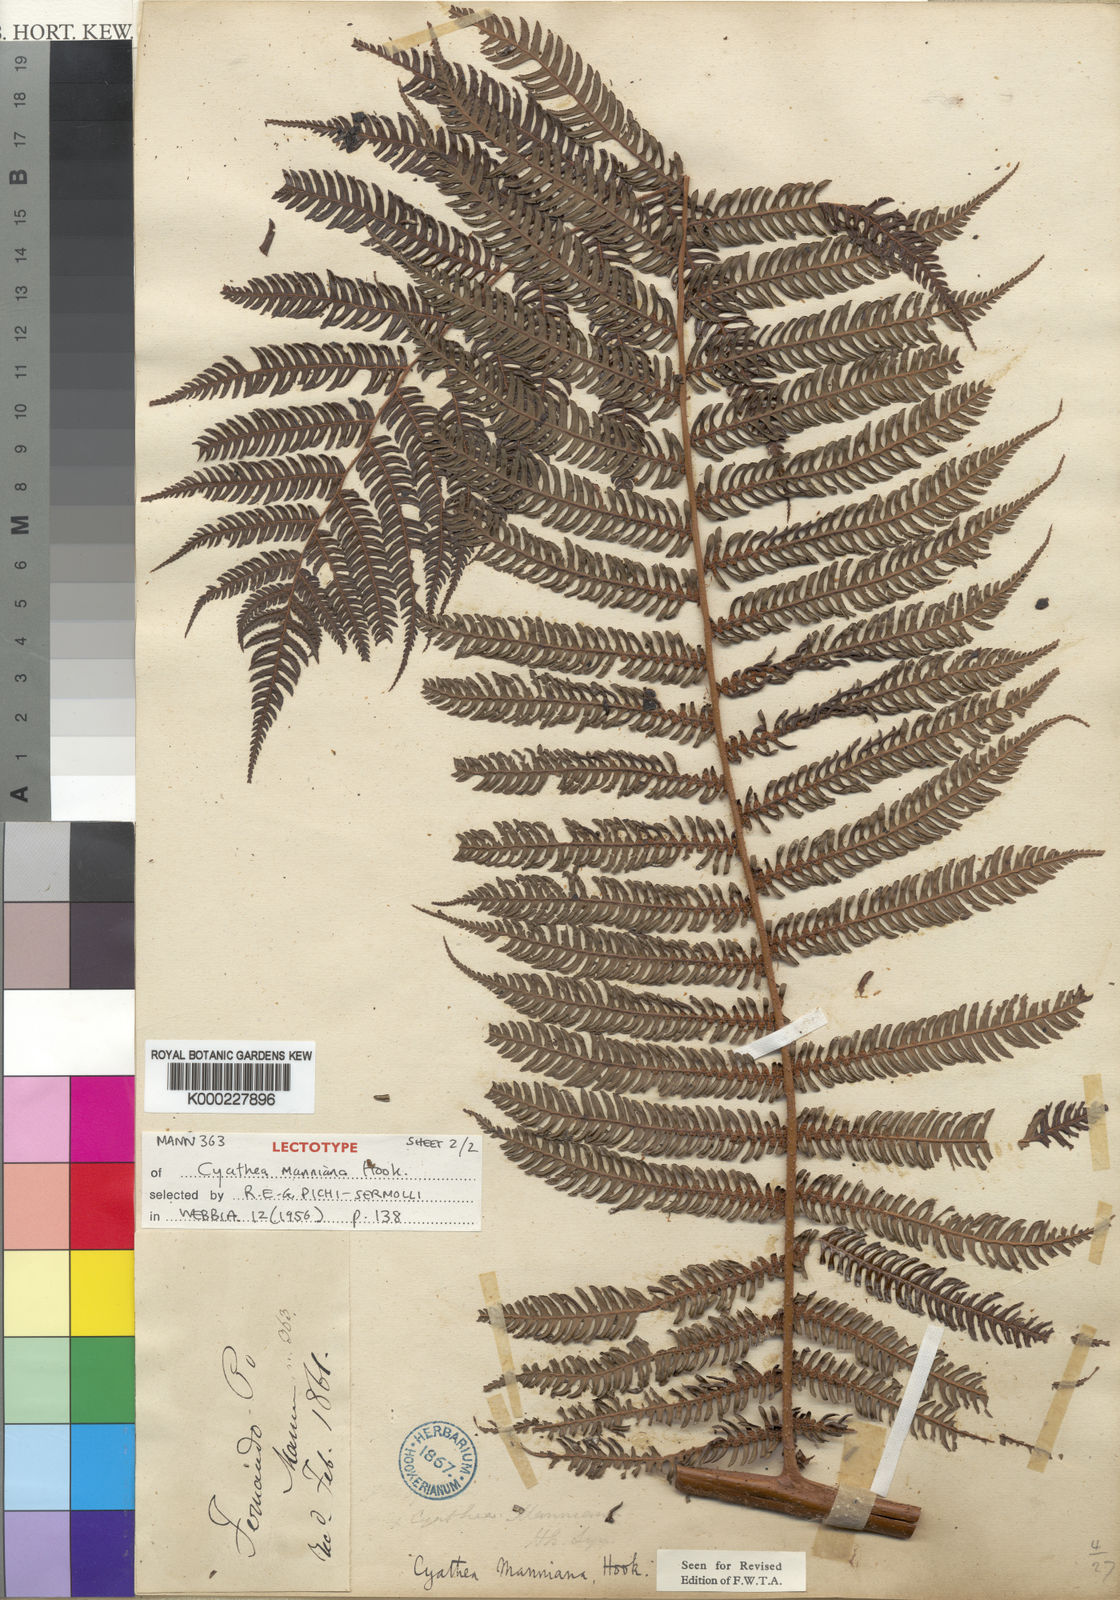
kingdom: Plantae
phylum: Tracheophyta
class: Polypodiopsida
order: Cyatheales
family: Cyatheaceae
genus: Alsophila
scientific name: Alsophila manniana
